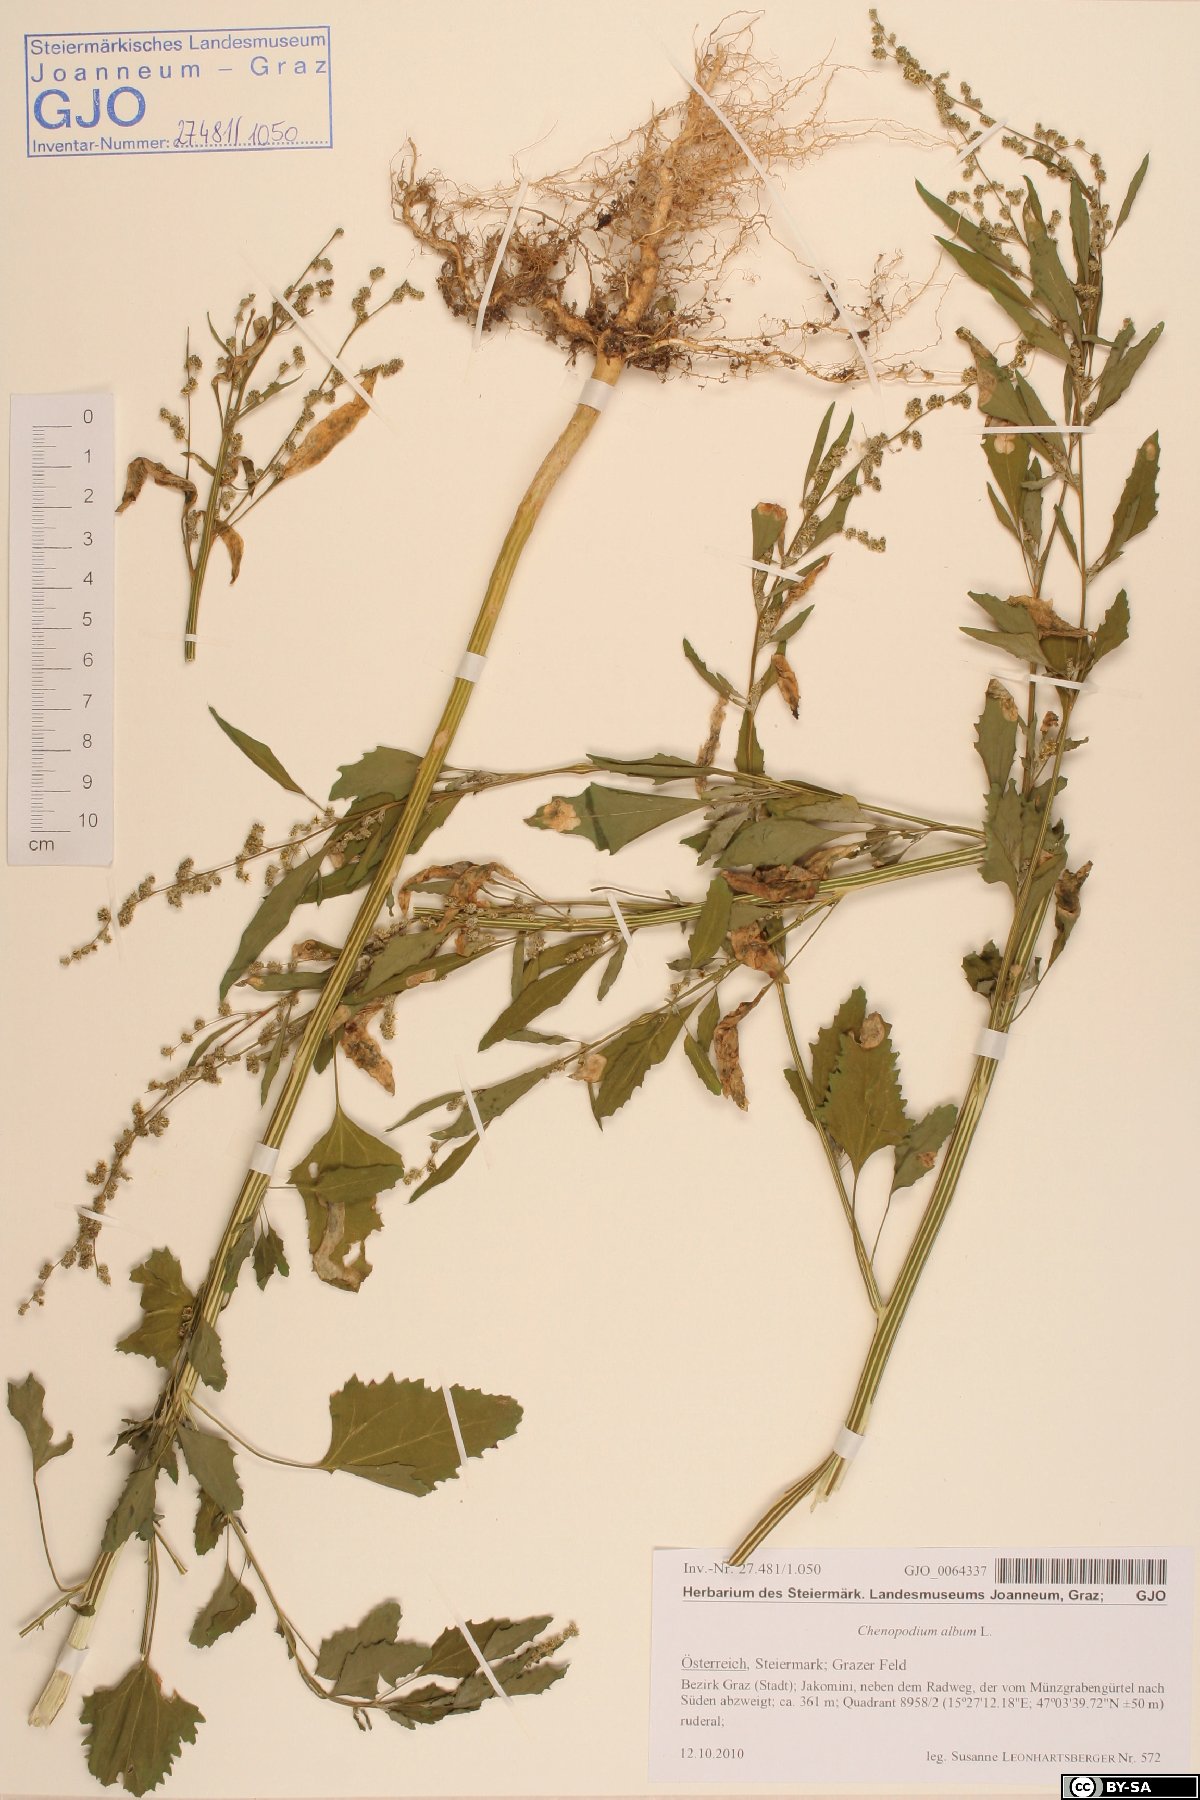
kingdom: Plantae
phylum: Tracheophyta
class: Magnoliopsida
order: Caryophyllales
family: Amaranthaceae
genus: Chenopodium
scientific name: Chenopodium album
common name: Fat-hen
